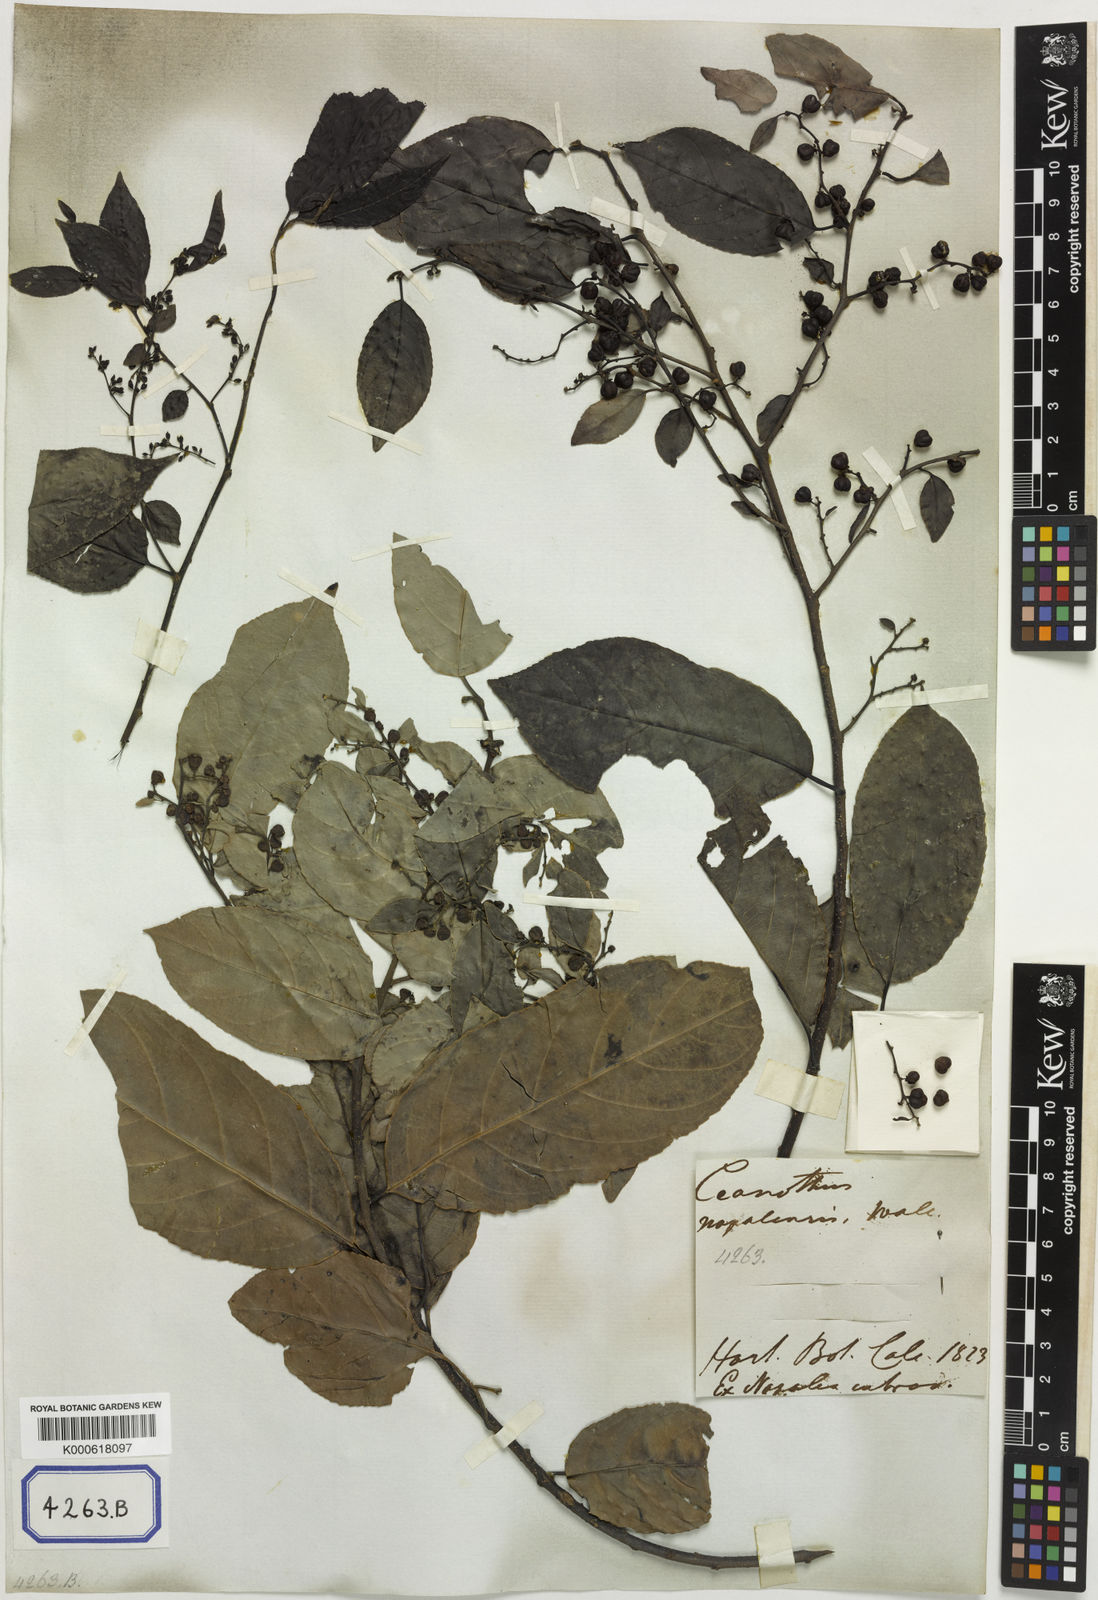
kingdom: Plantae
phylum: Tracheophyta
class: Magnoliopsida
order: Rosales
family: Rhamnaceae
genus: Rhamnus
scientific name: Rhamnus napalensis
